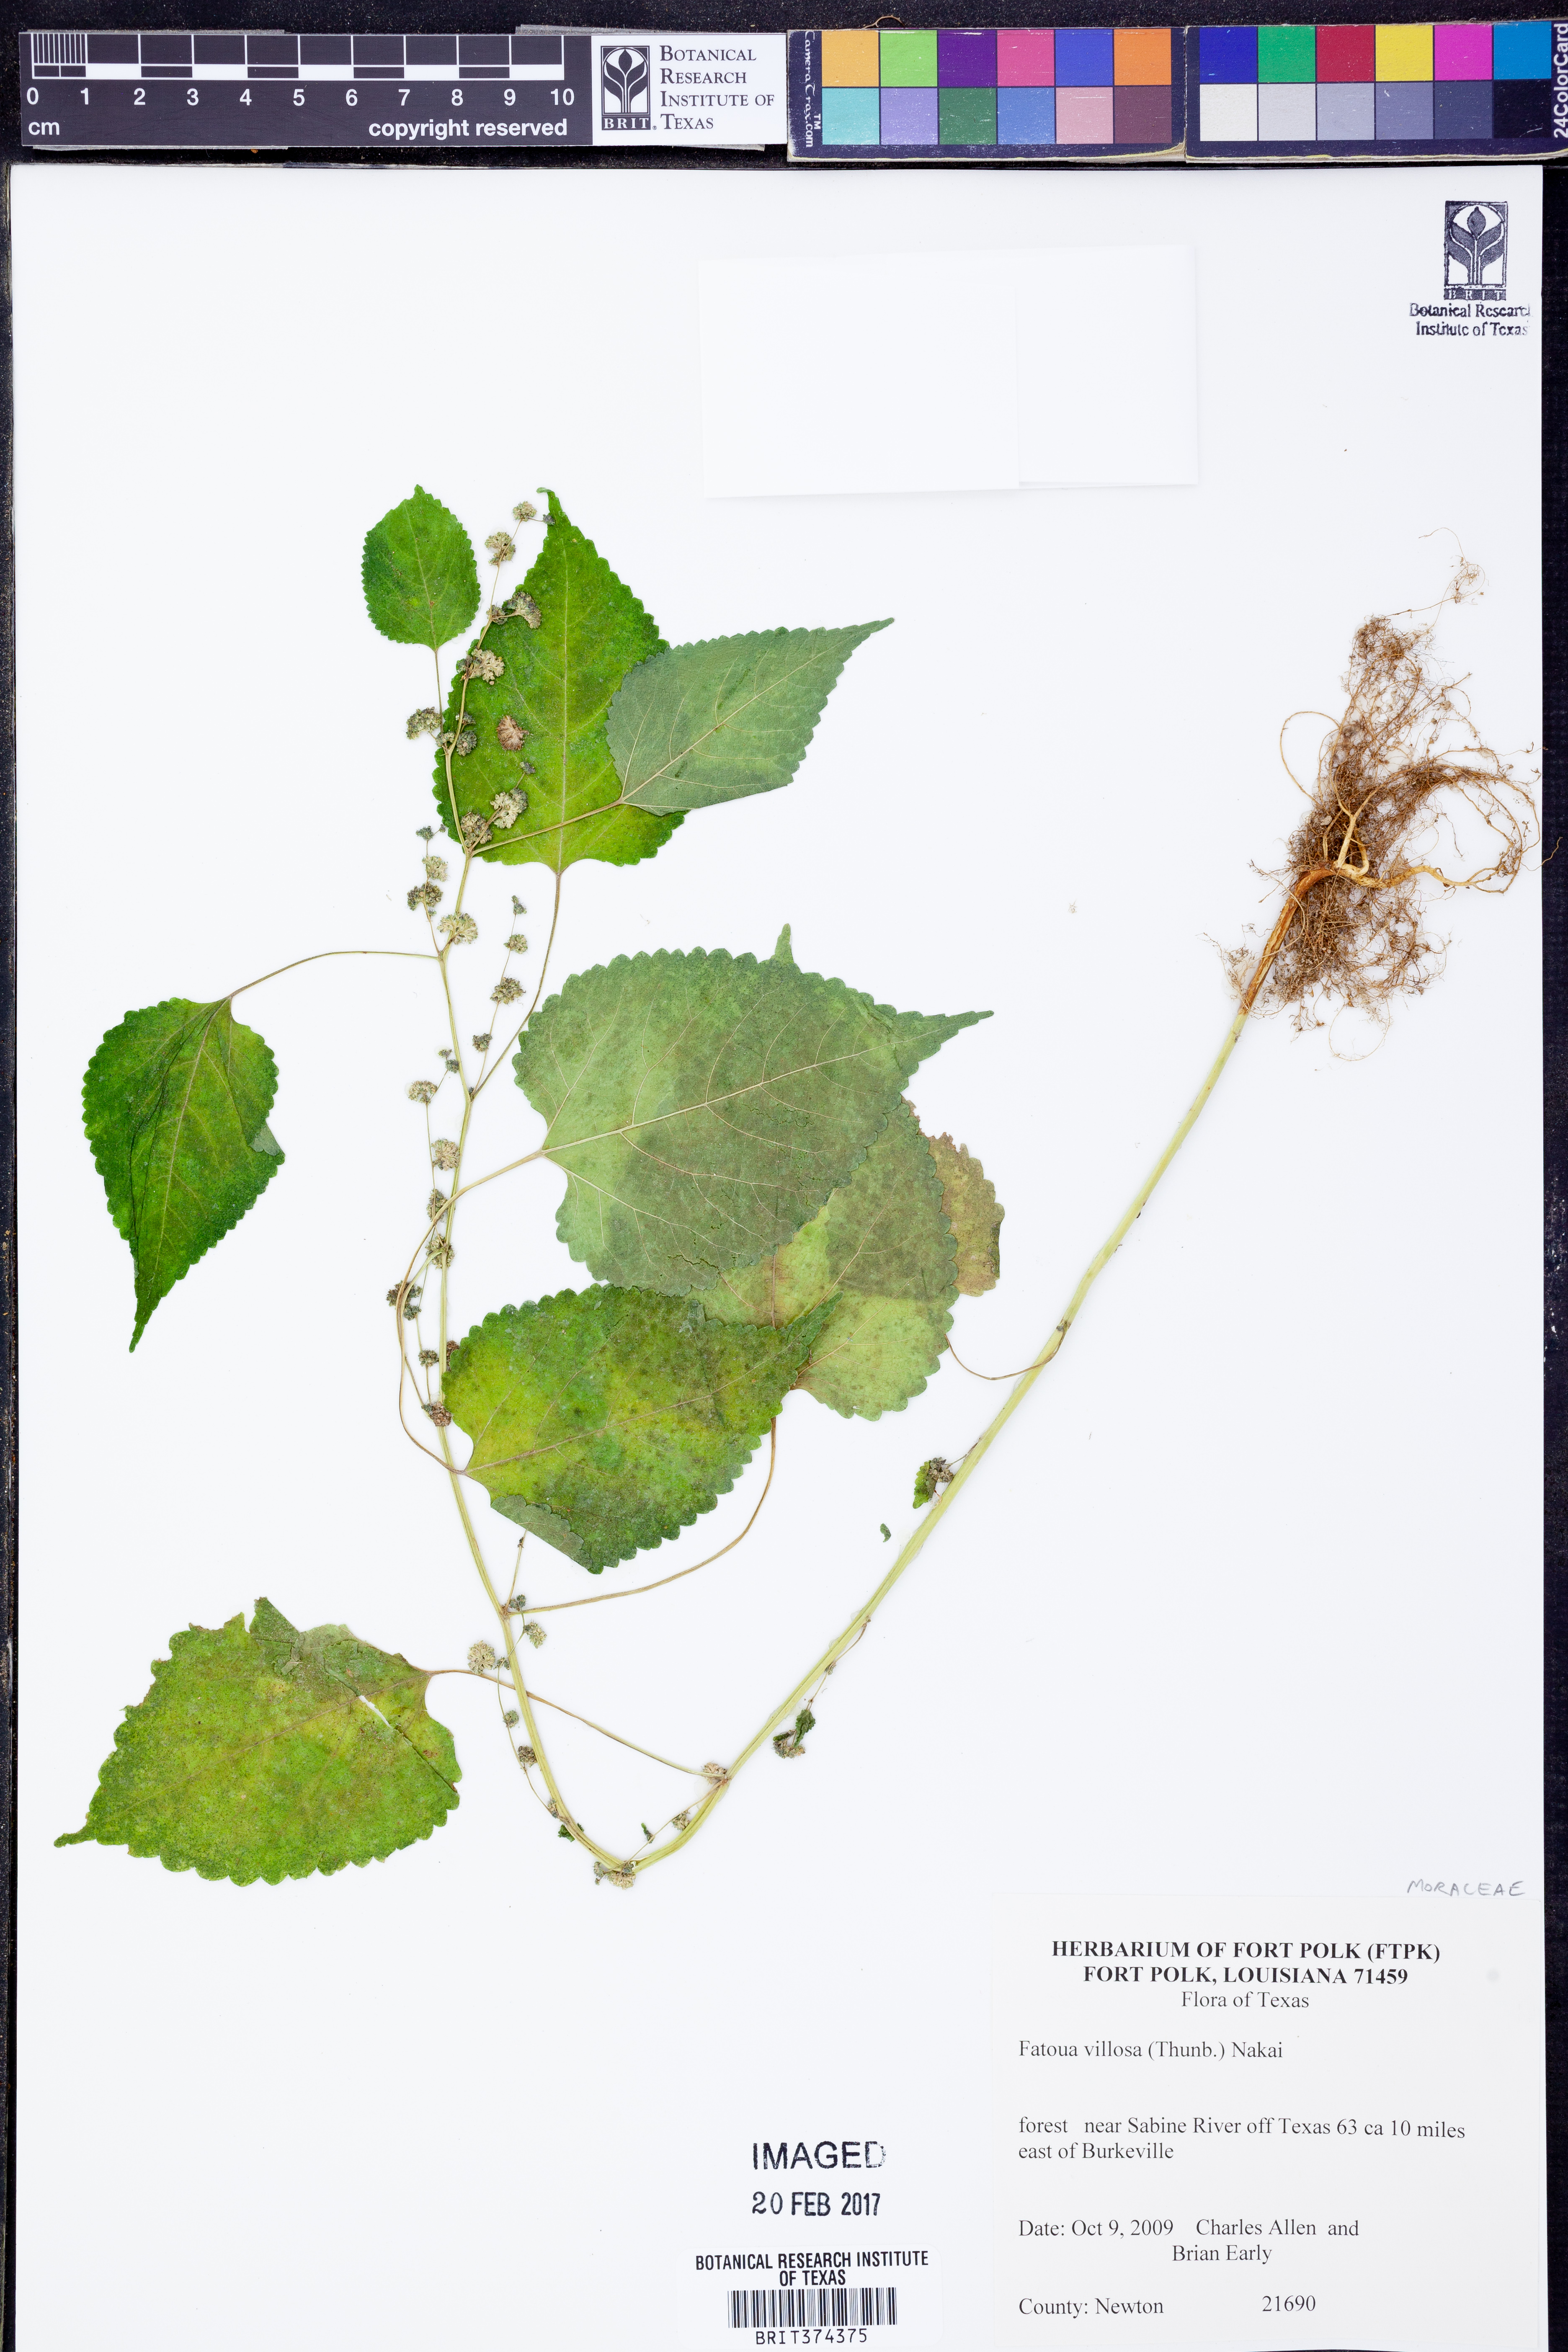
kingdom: Plantae
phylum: Tracheophyta
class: Magnoliopsida
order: Rosales
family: Moraceae
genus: Fatoua
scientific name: Fatoua villosa
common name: Hairy crabweed
